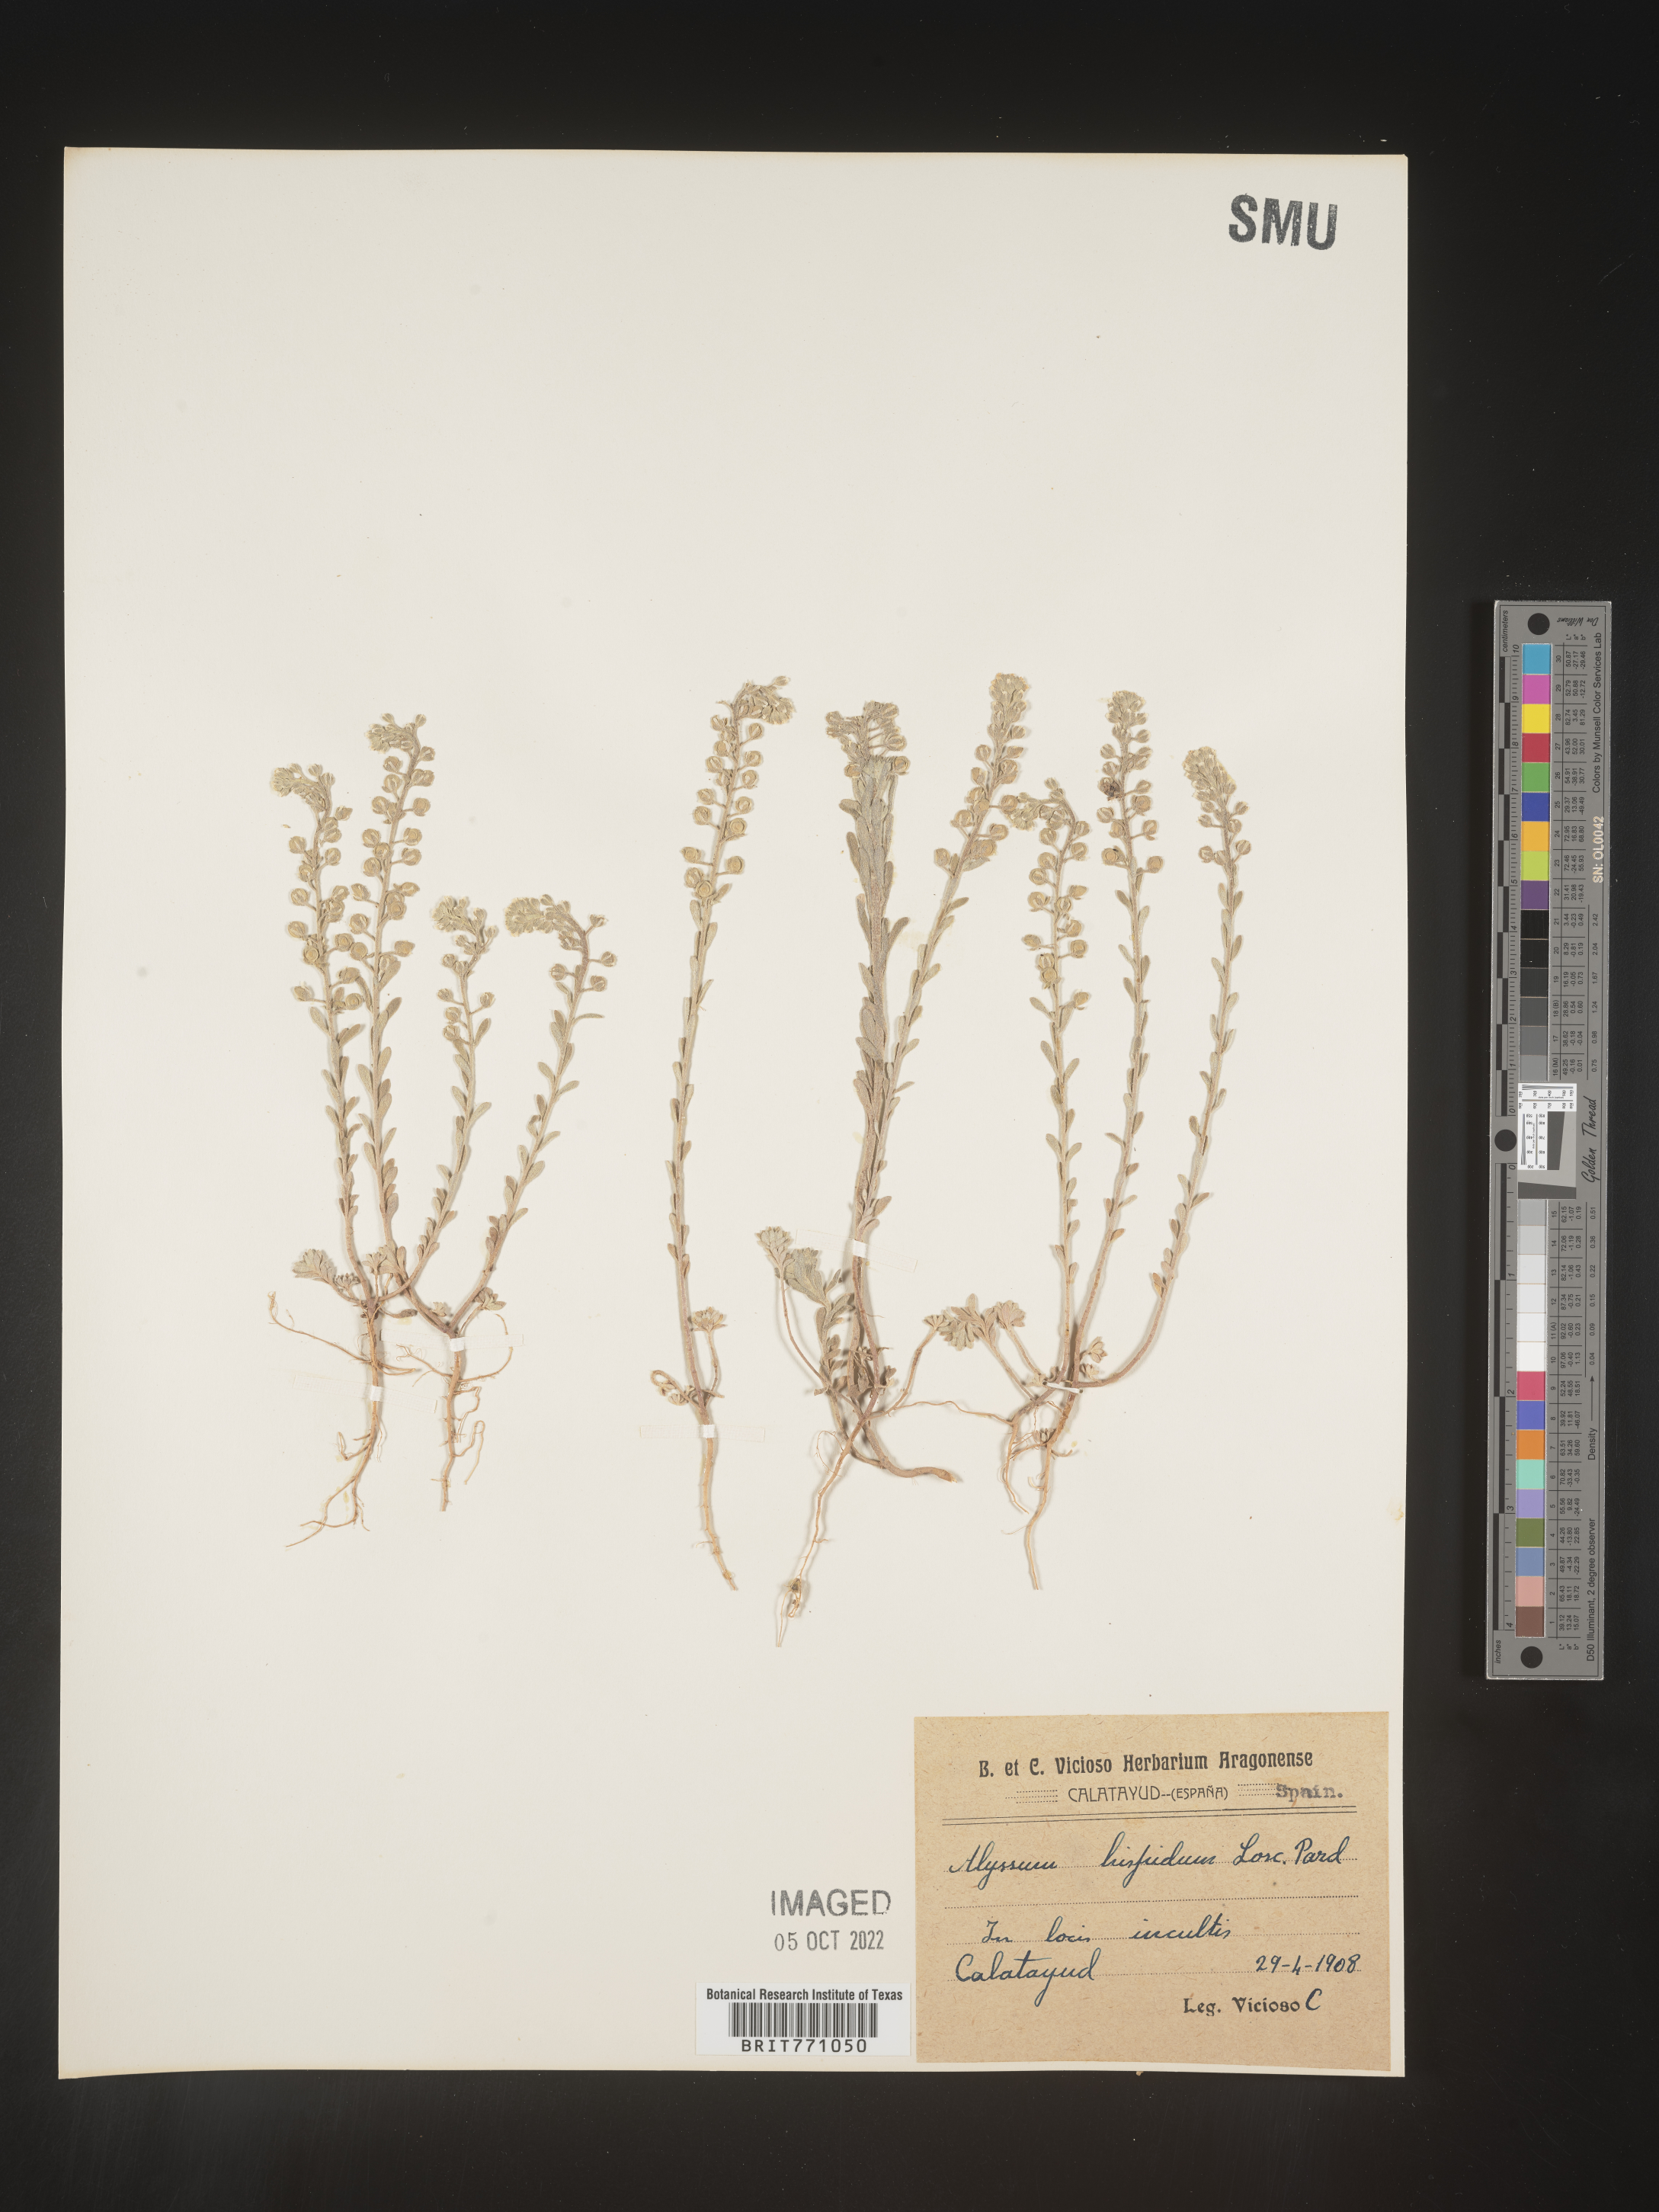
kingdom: Plantae
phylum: Tracheophyta
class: Magnoliopsida
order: Brassicales
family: Brassicaceae
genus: Alyssum
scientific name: Alyssum
